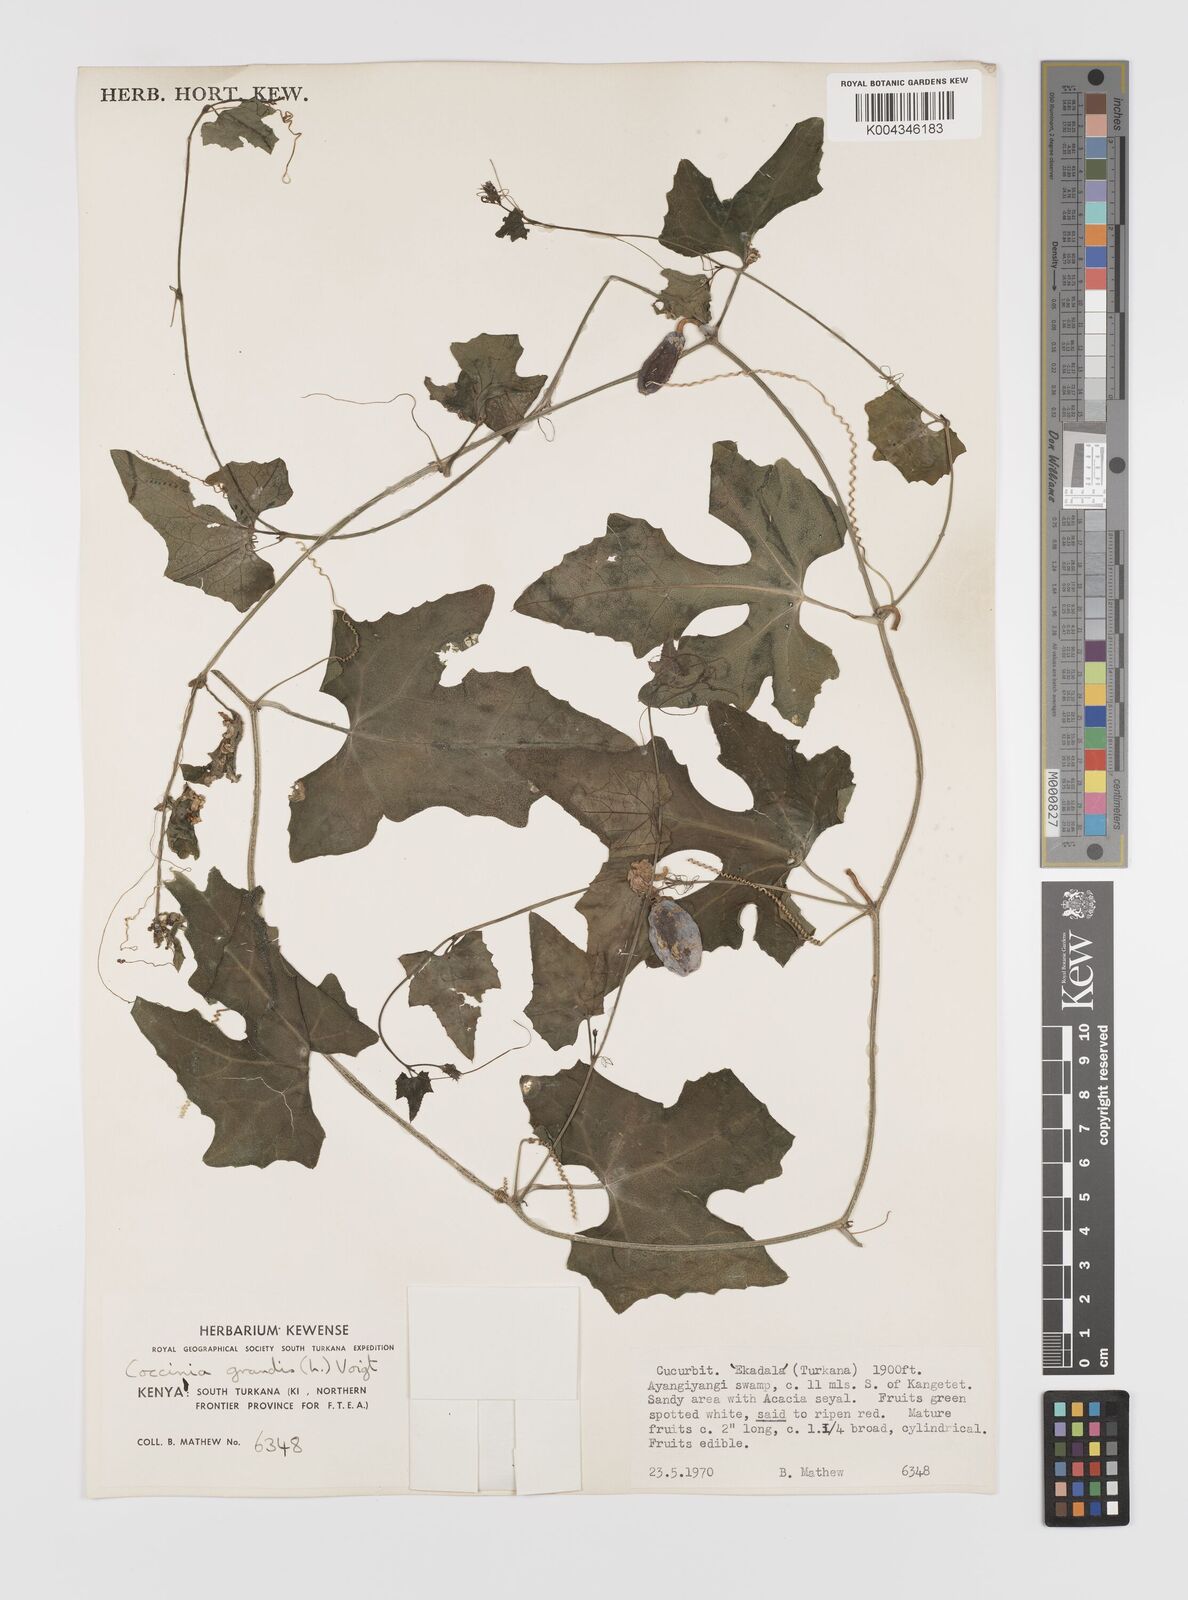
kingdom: Plantae
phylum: Tracheophyta
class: Magnoliopsida
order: Cucurbitales
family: Cucurbitaceae
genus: Coccinia
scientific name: Coccinia grandis
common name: Ivy gourd
